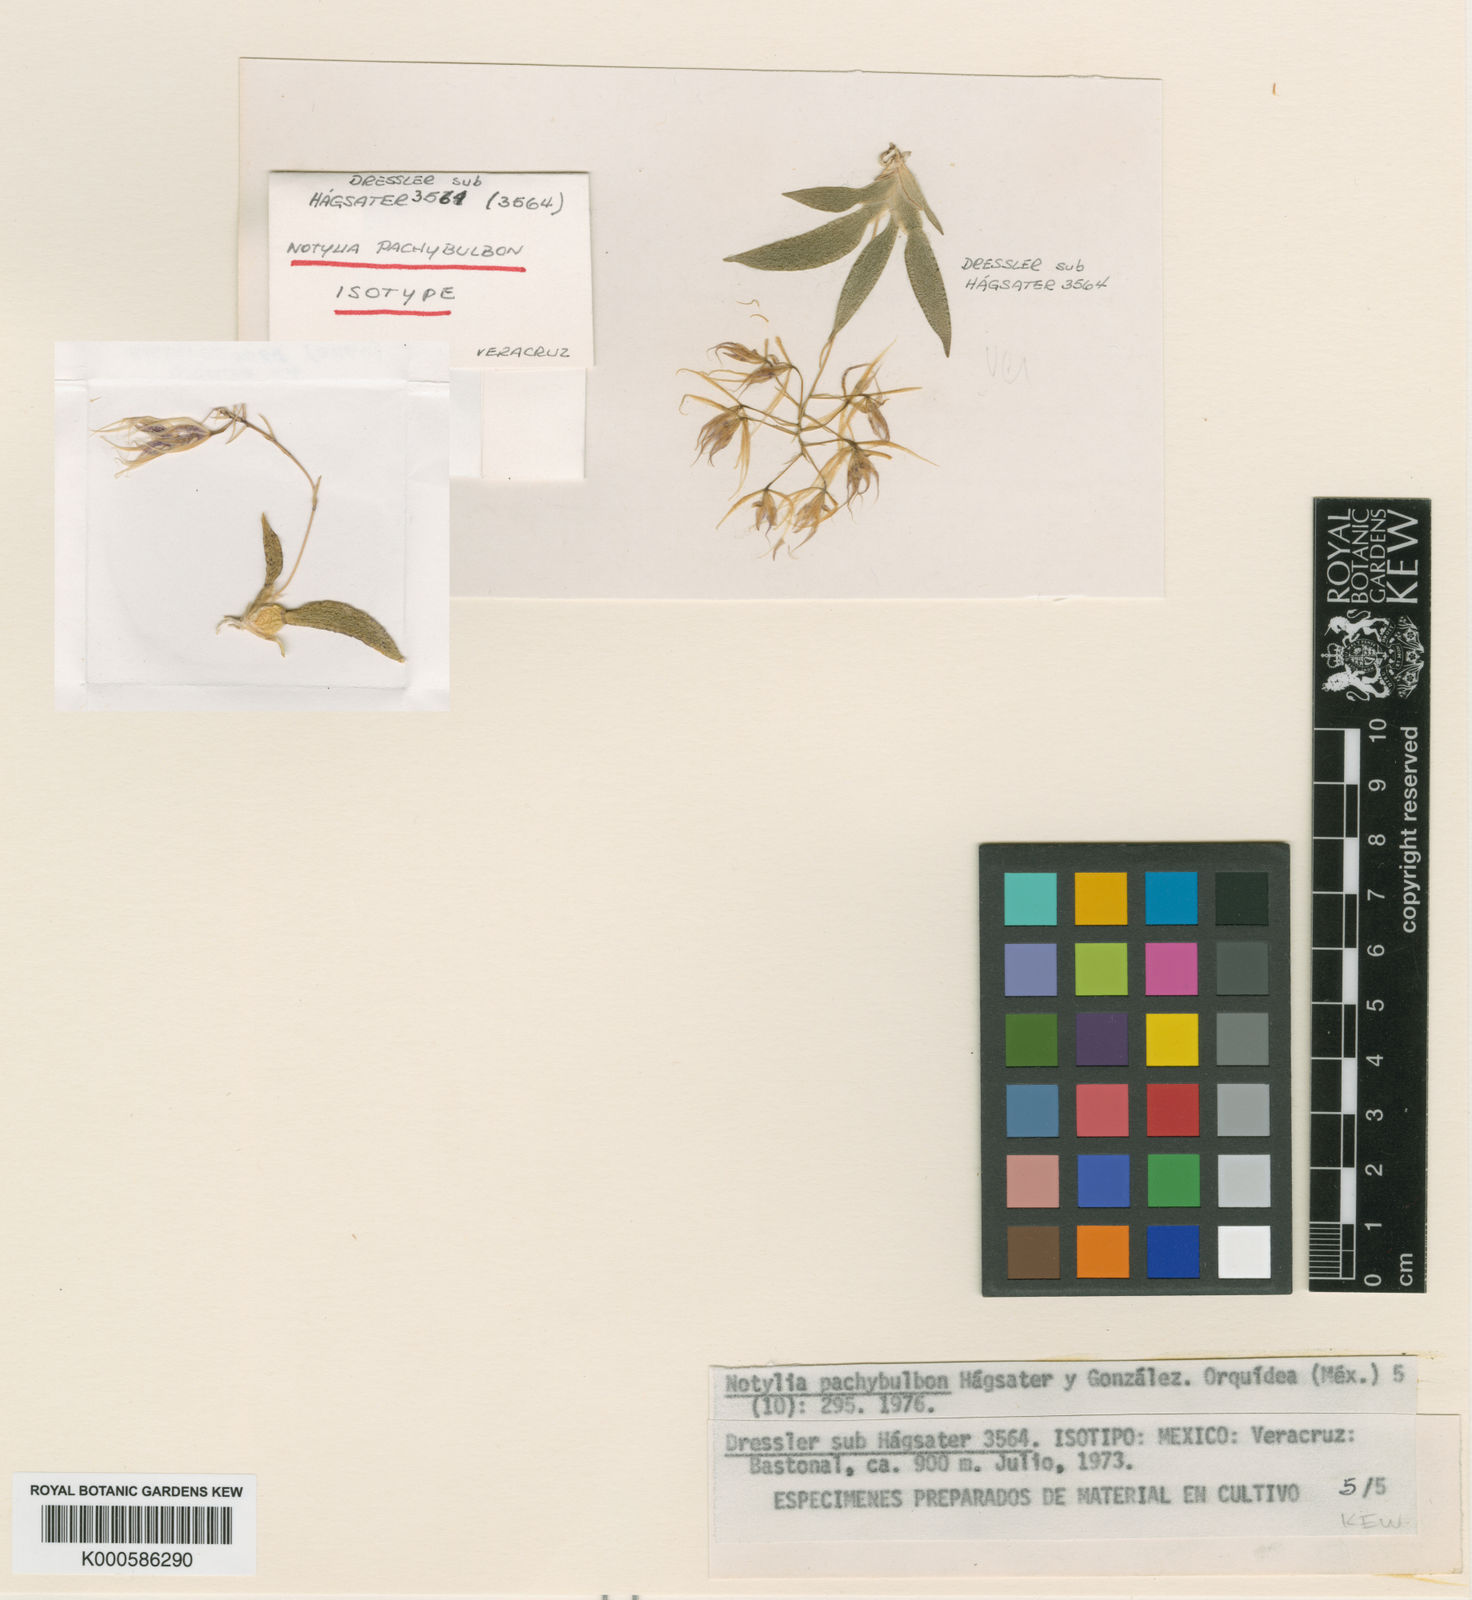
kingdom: Plantae
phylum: Tracheophyta
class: Liliopsida
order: Asparagales
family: Orchidaceae
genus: Notylia
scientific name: Notylia
